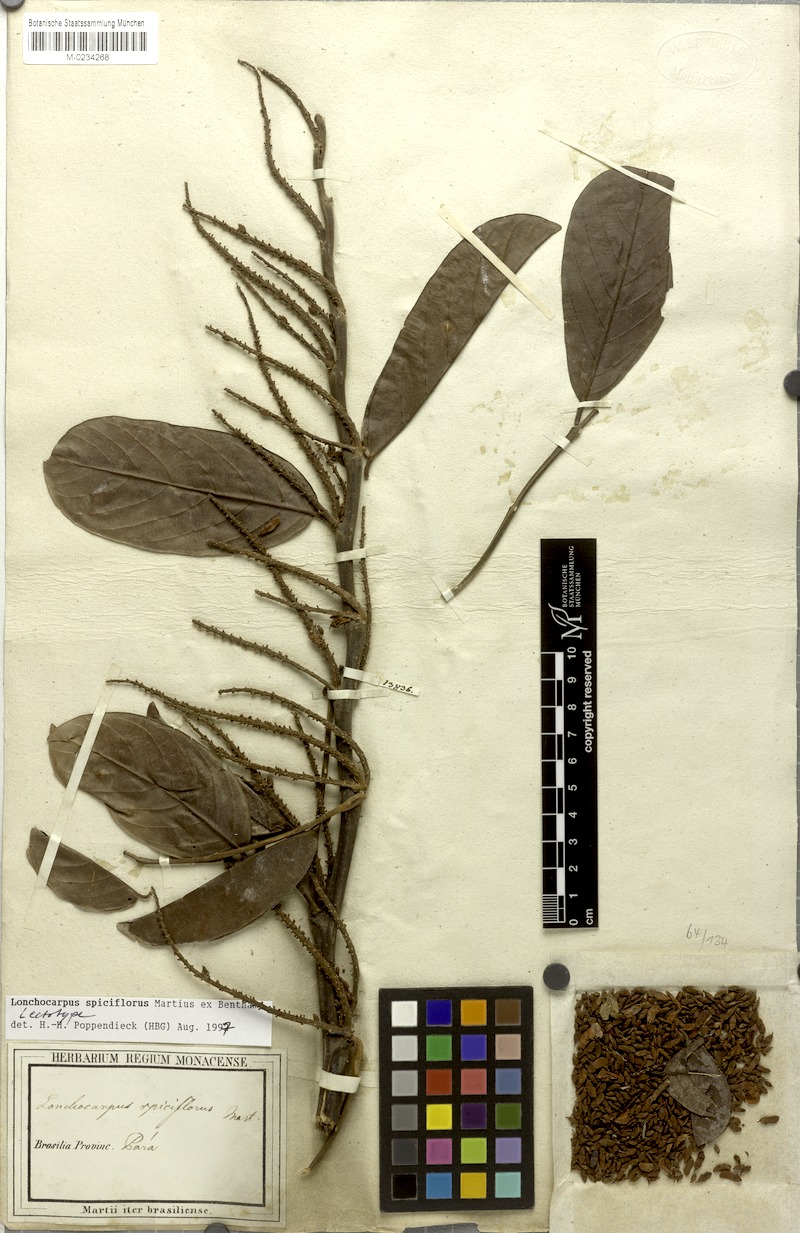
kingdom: Plantae
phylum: Tracheophyta
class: Magnoliopsida
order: Fabales
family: Fabaceae
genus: Lonchocarpus
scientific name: Lonchocarpus spiciflorus
